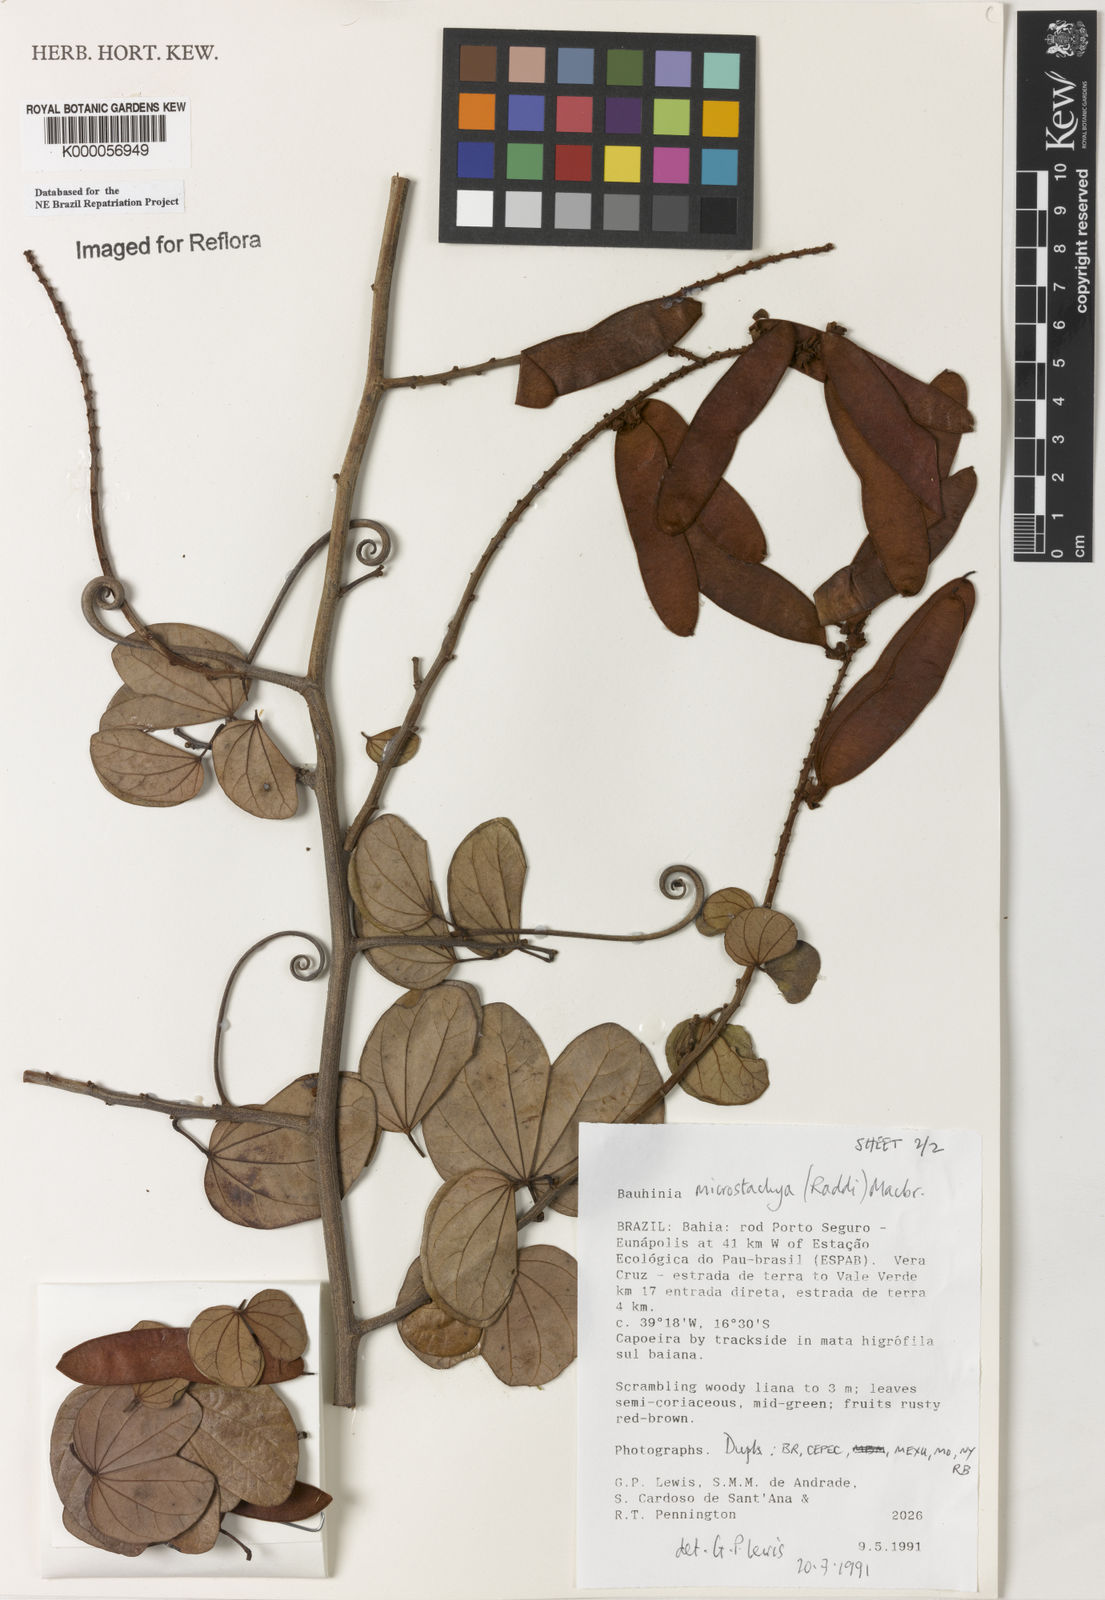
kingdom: Plantae
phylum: Tracheophyta
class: Magnoliopsida
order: Fabales
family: Fabaceae
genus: Schnella
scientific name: Schnella microstachya
